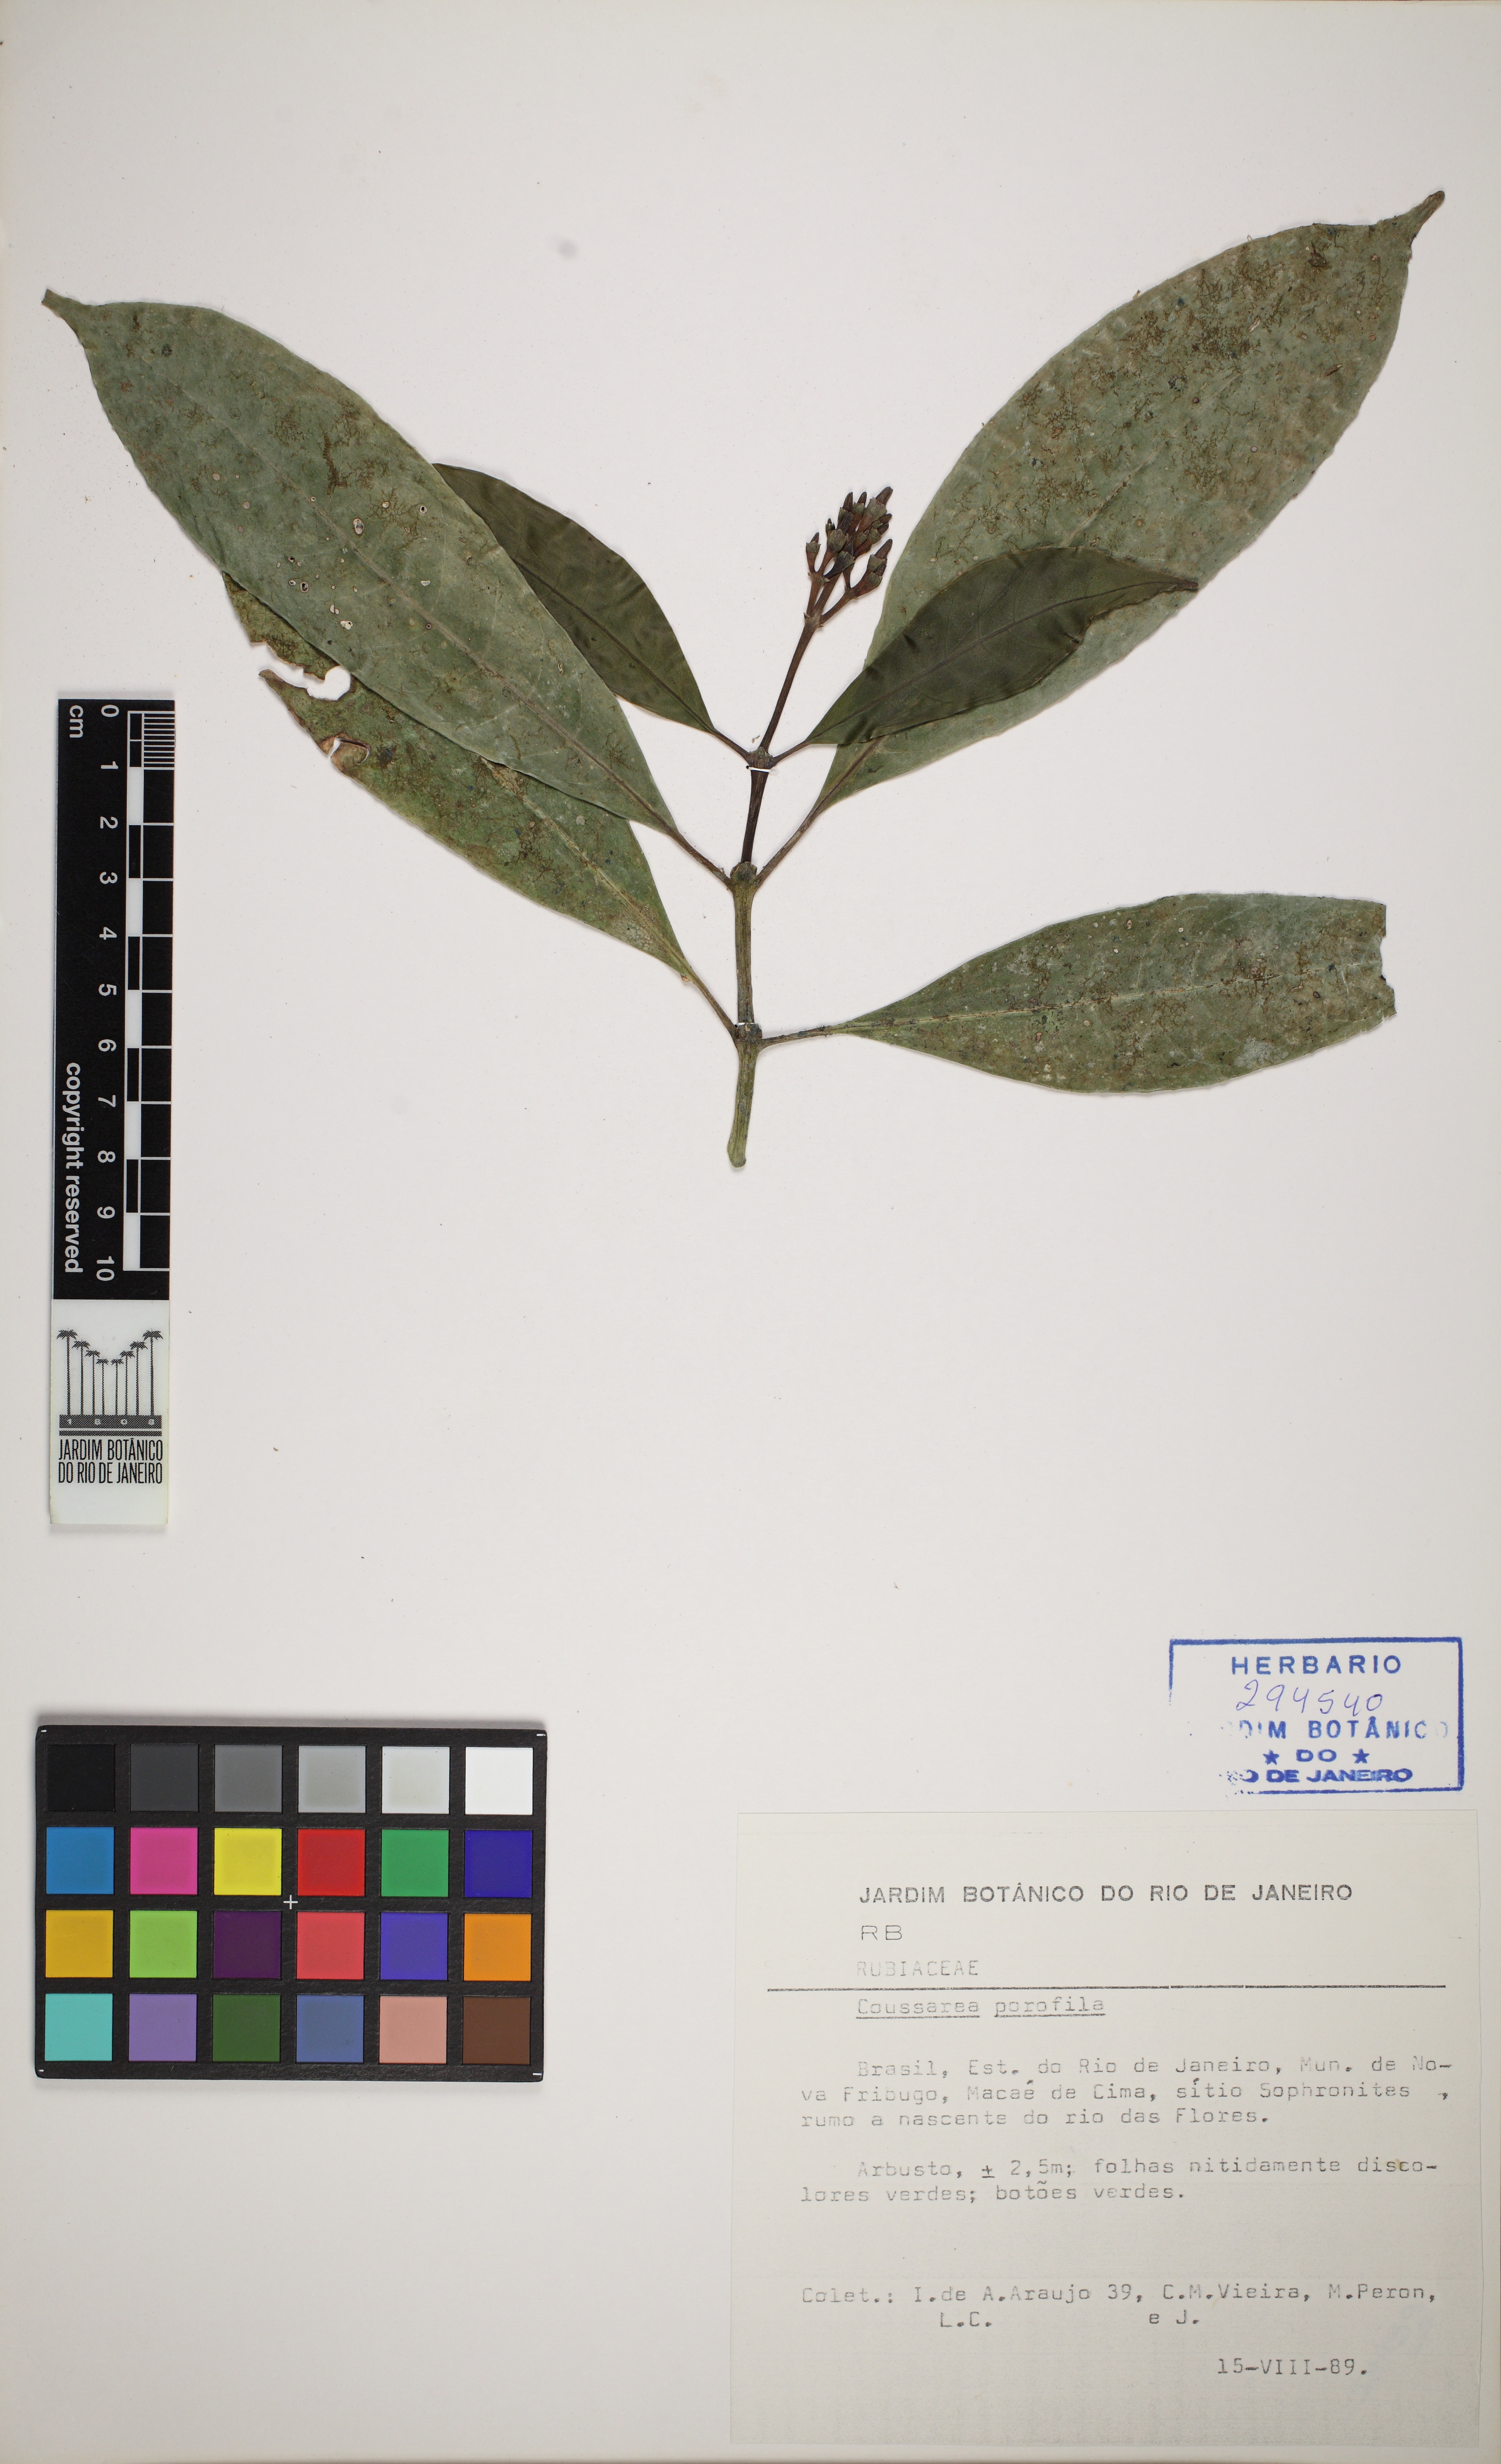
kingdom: Plantae
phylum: Tracheophyta
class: Magnoliopsida
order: Gentianales
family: Rubiaceae
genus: Coussarea
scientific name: Coussarea friburgensis
